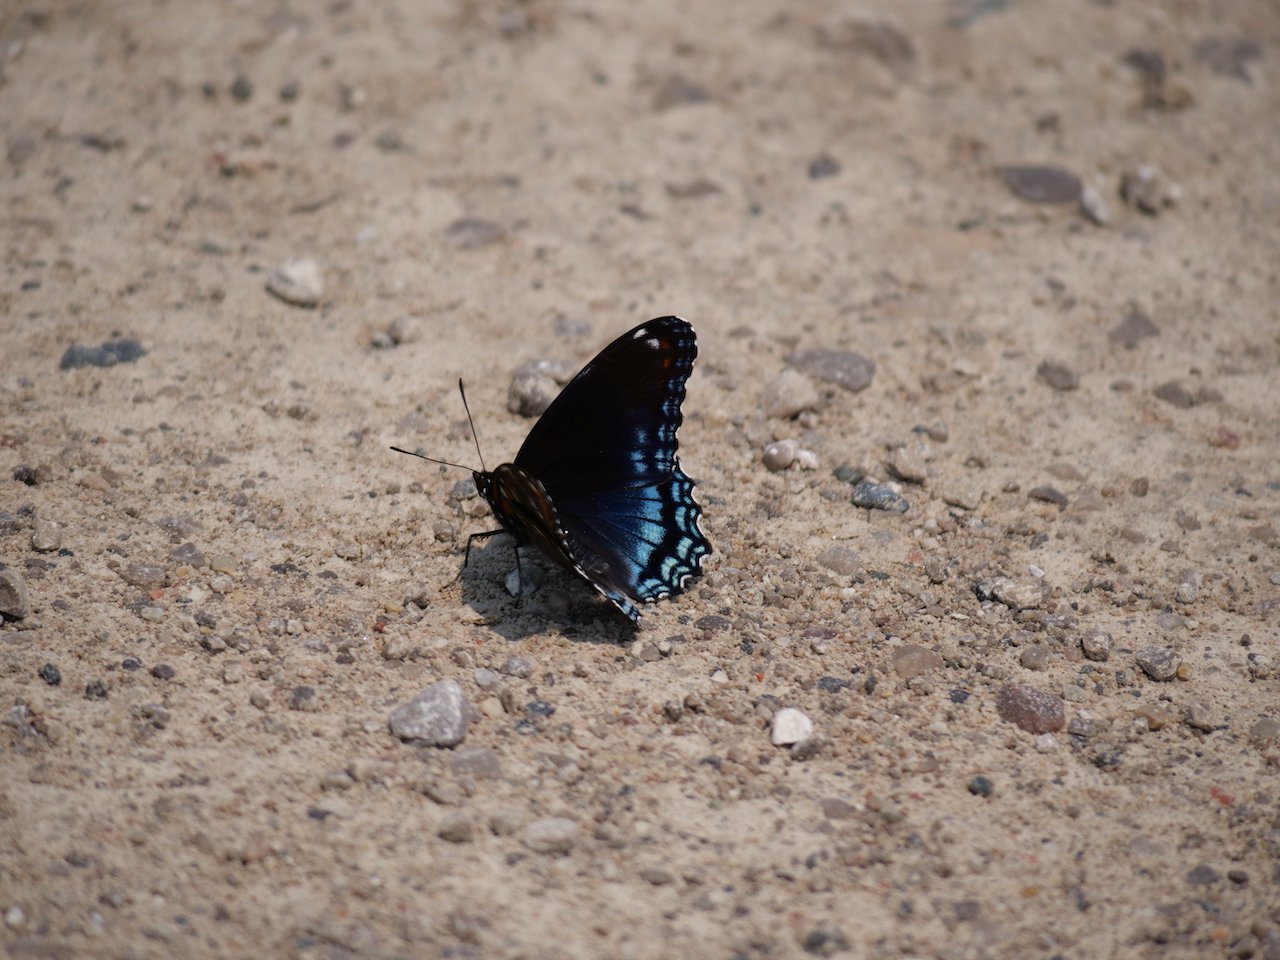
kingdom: Animalia
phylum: Arthropoda
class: Insecta
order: Lepidoptera
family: Nymphalidae
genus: Limenitis
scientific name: Limenitis arthemis
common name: Red-spotted Admiral
